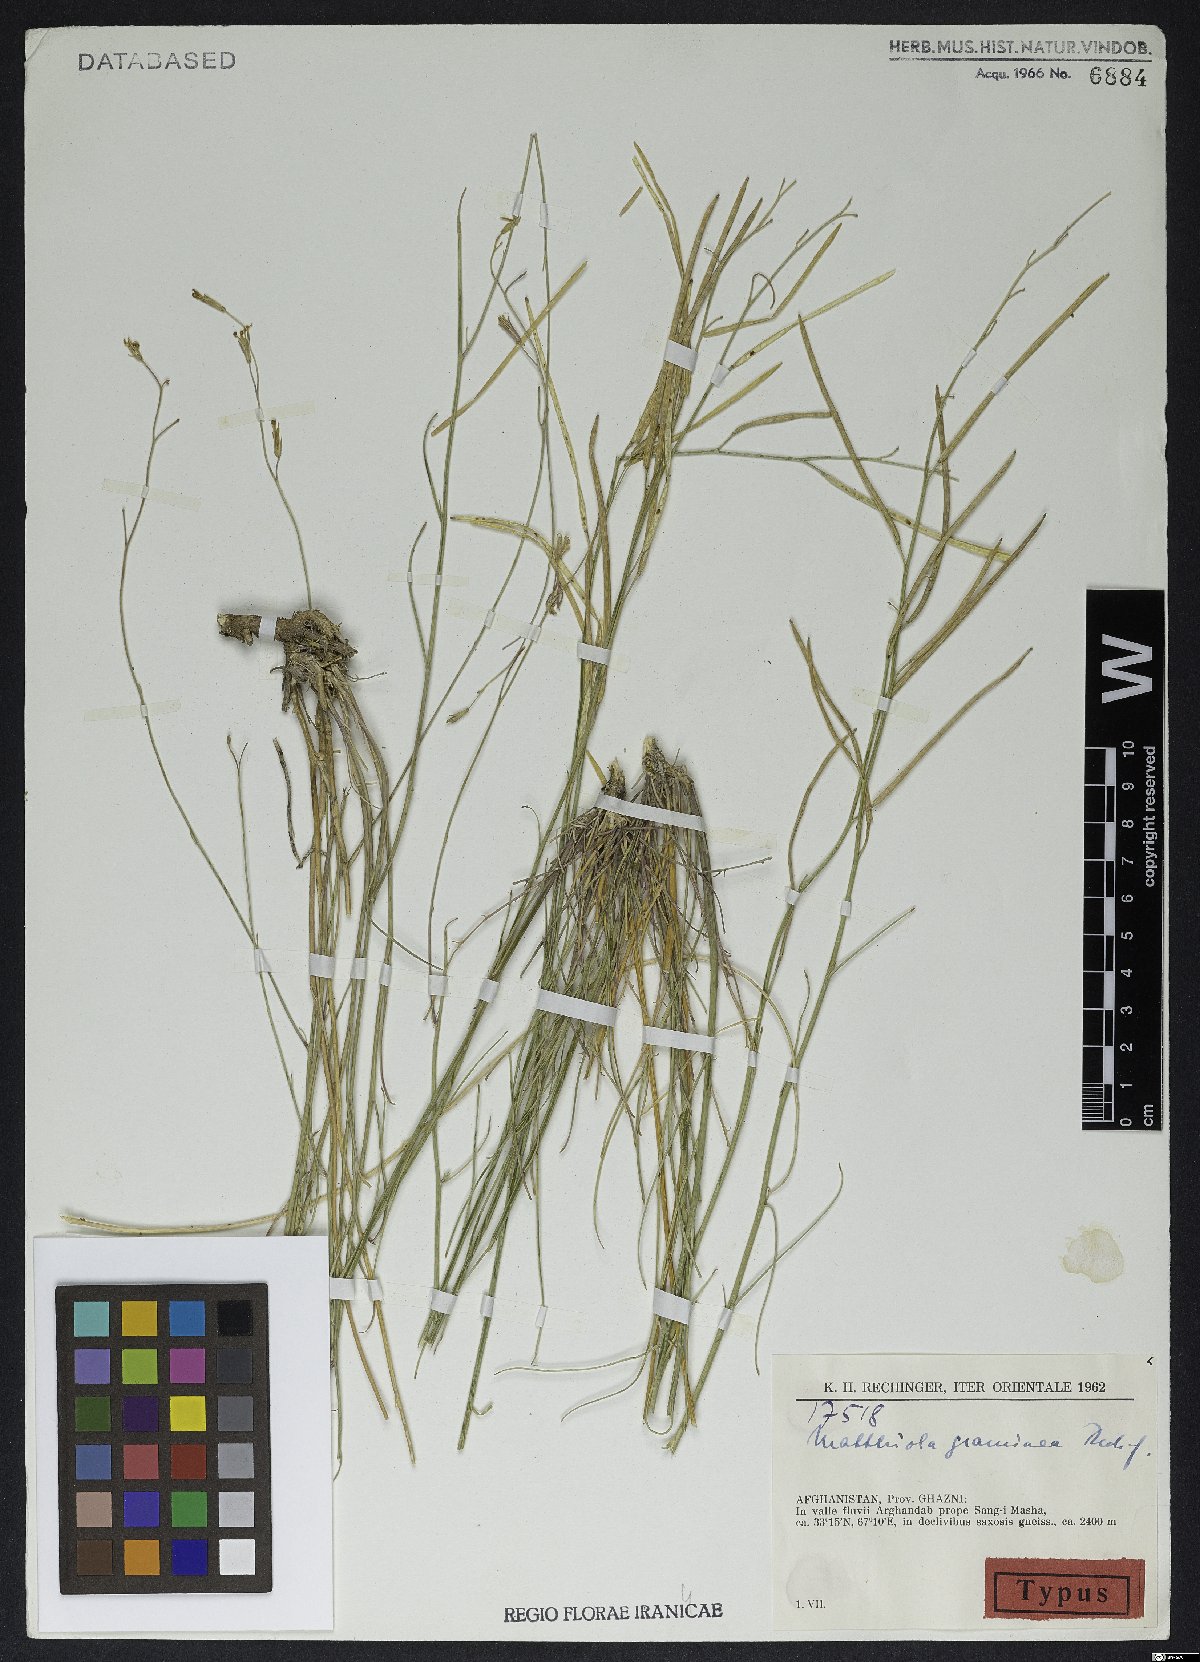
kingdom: Plantae
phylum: Tracheophyta
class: Magnoliopsida
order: Brassicales
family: Brassicaceae
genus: Matthiola
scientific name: Matthiola graminea
